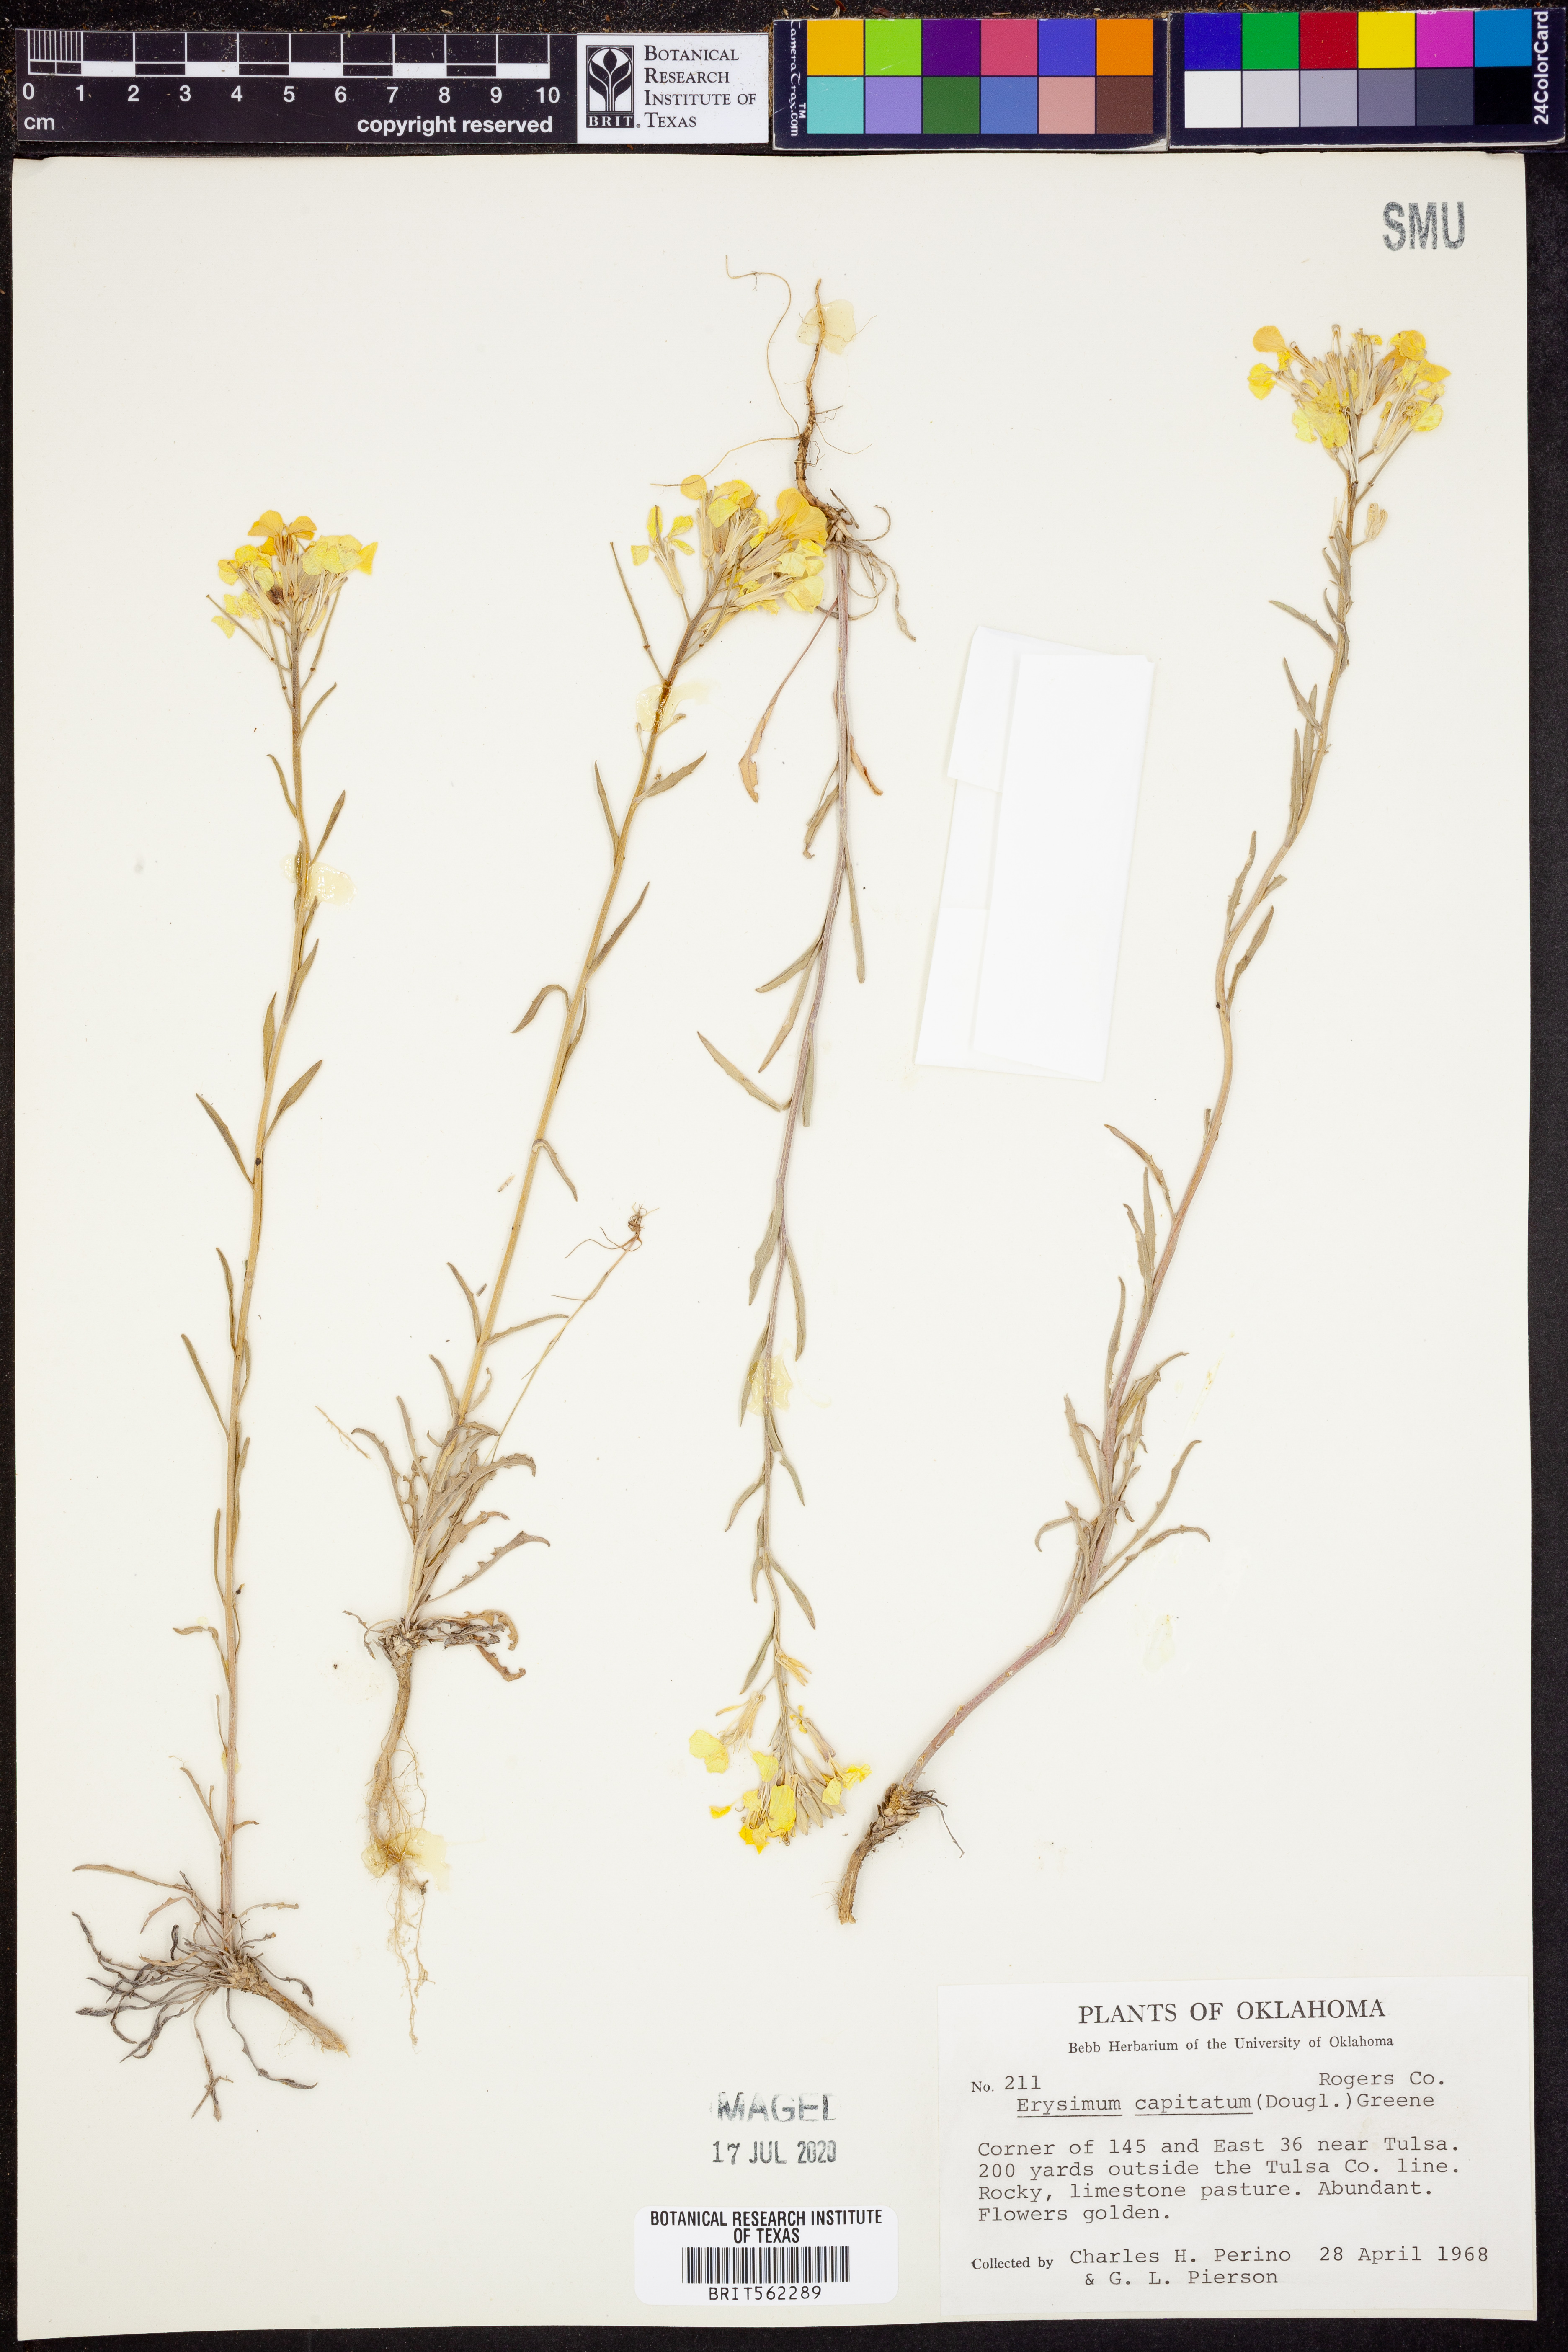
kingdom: Plantae
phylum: Tracheophyta
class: Magnoliopsida
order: Brassicales
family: Brassicaceae
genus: Erysimum
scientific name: Erysimum capitatum
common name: Western wallflower
